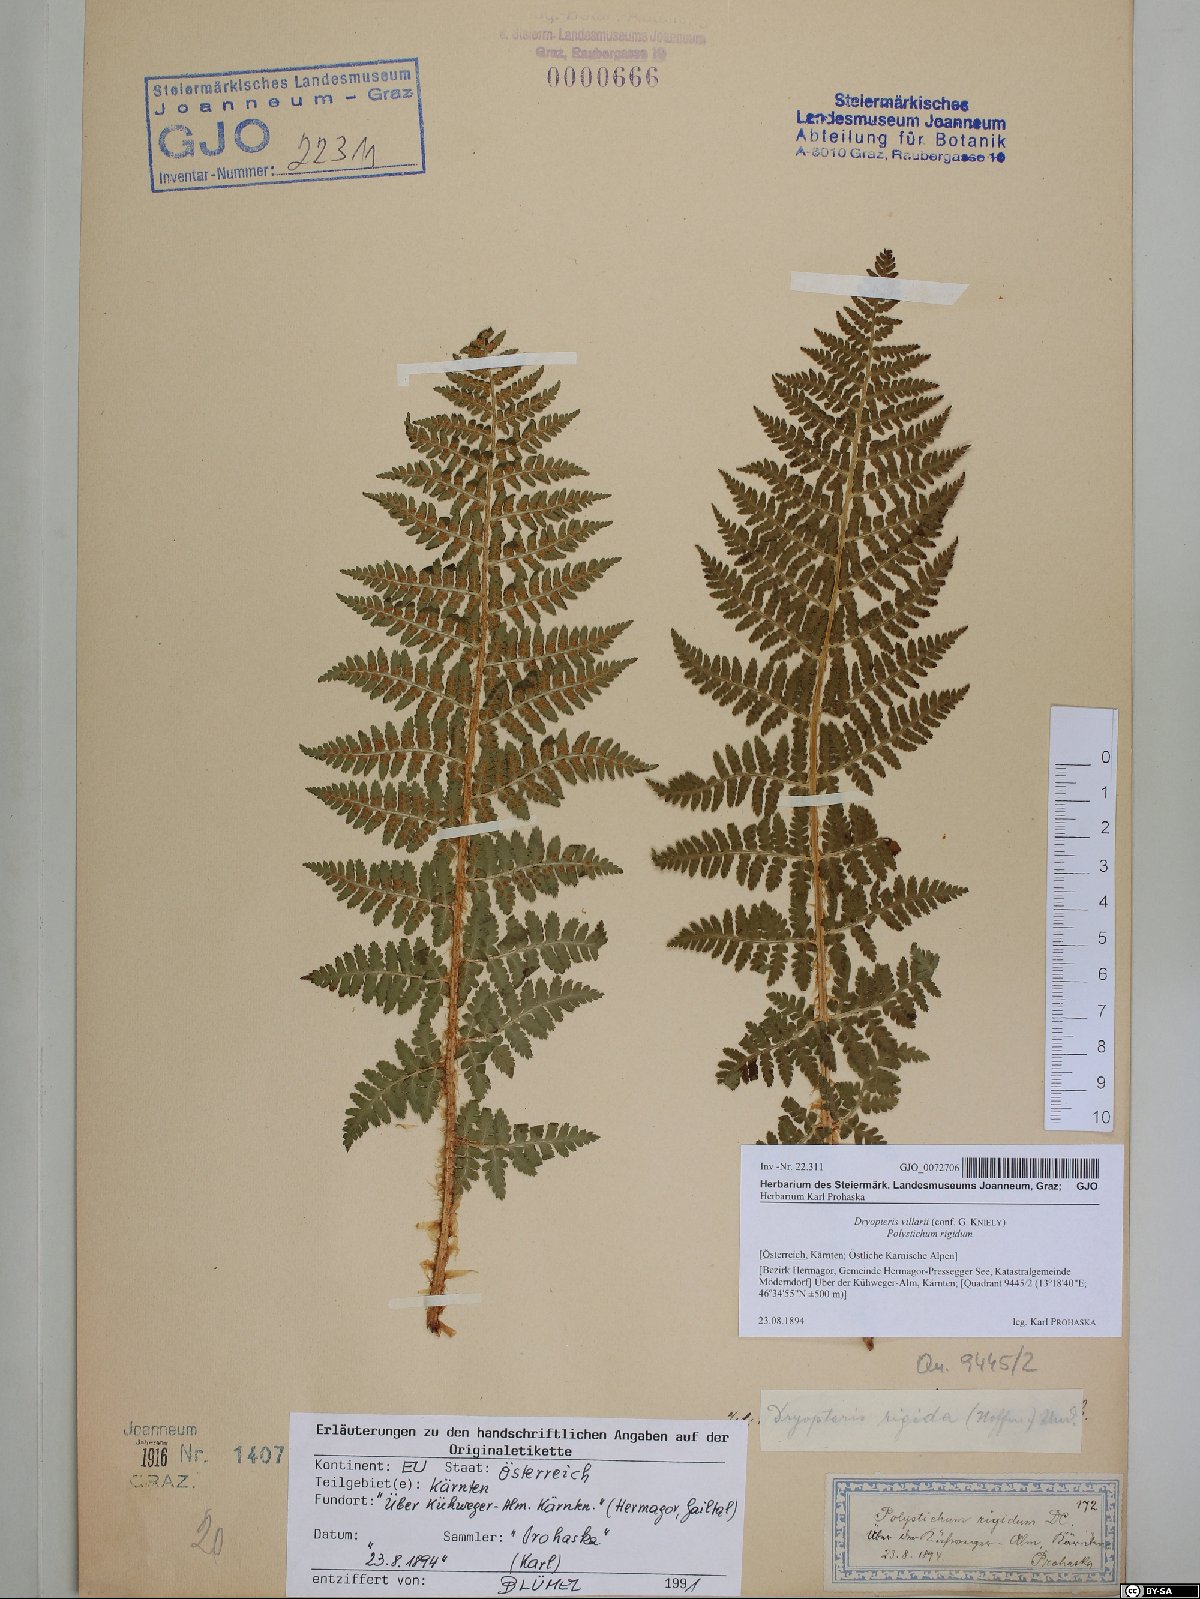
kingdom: Plantae
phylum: Tracheophyta
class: Polypodiopsida
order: Polypodiales
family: Dryopteridaceae
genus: Dryopteris
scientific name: Dryopteris villarii
